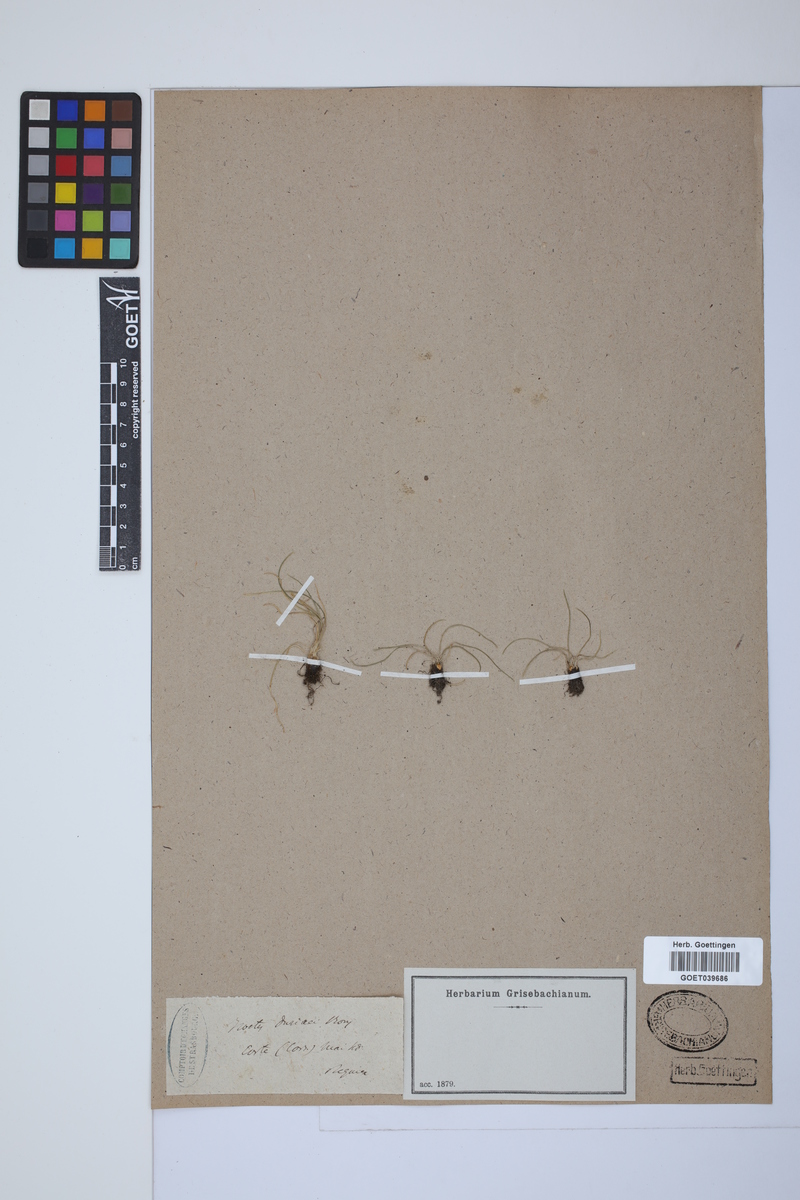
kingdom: Plantae
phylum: Tracheophyta
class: Lycopodiopsida
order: Isoetales
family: Isoetaceae
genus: Isoetes
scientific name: Isoetes duriei
